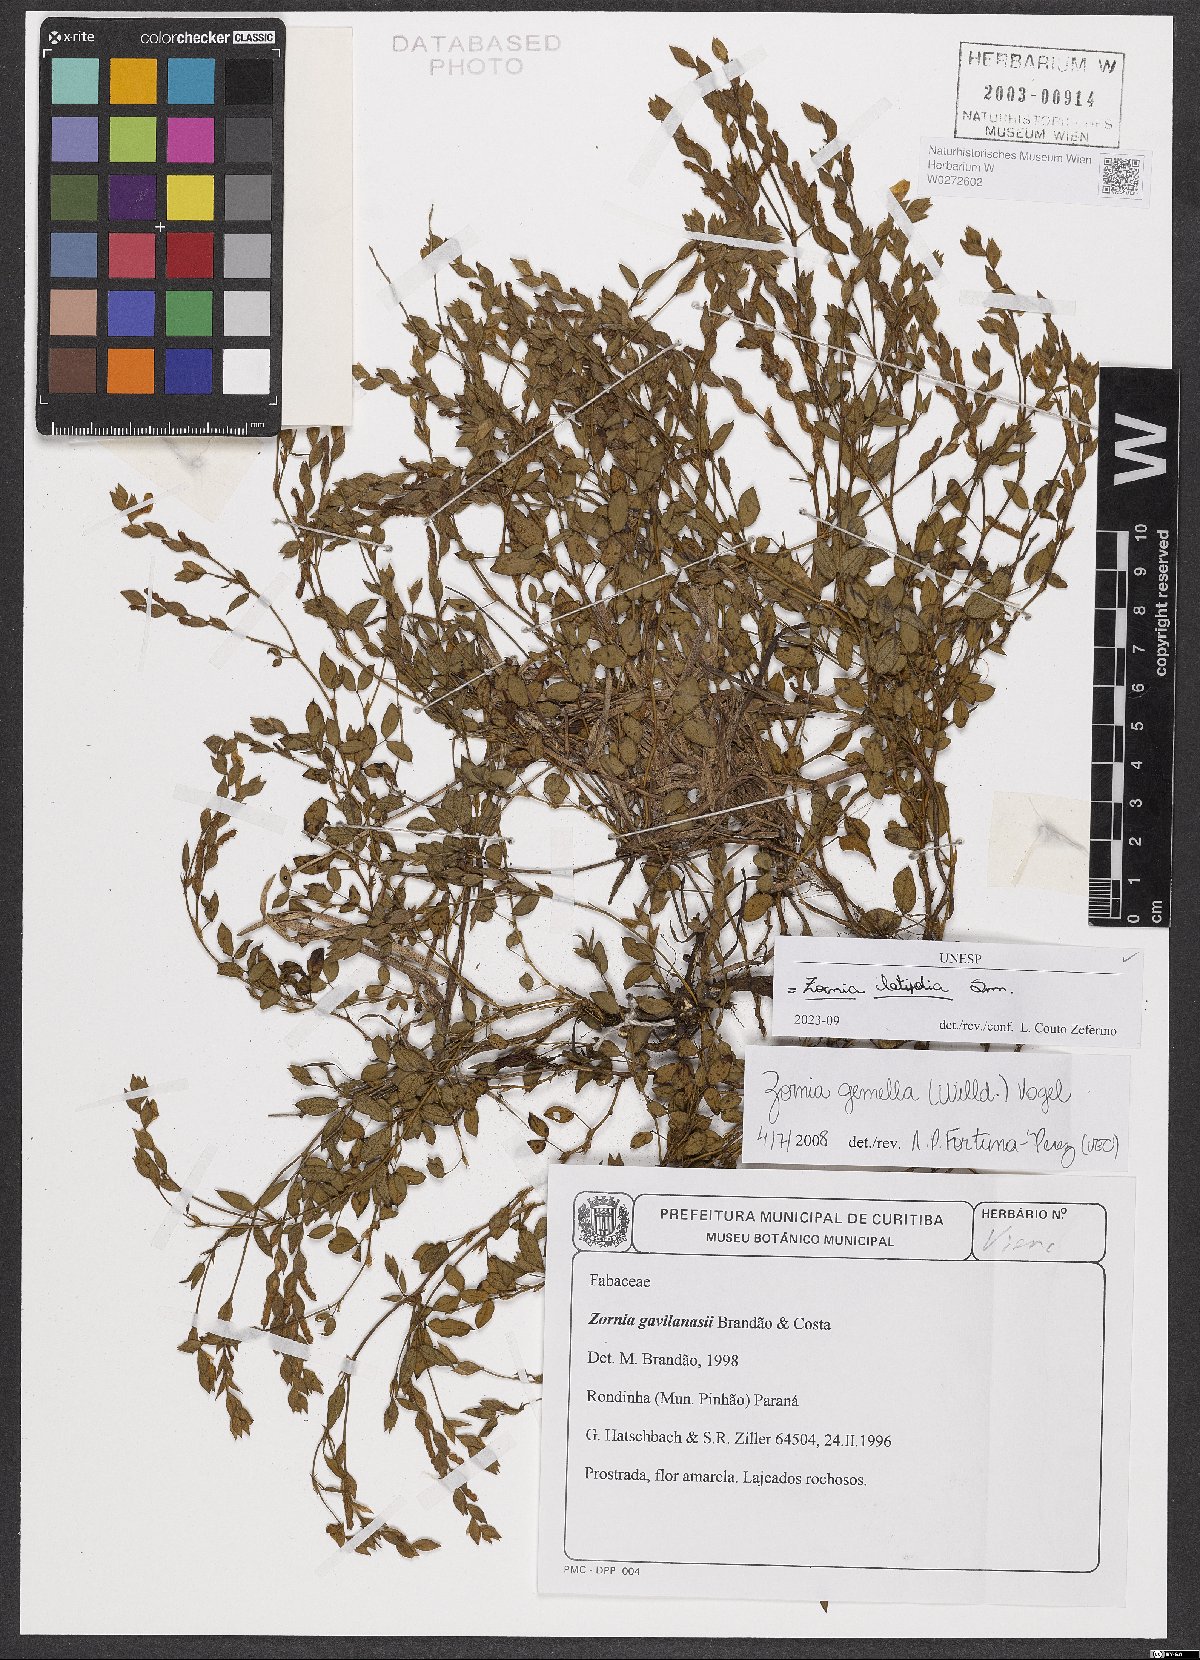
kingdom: Plantae
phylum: Tracheophyta
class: Magnoliopsida
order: Fabales
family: Fabaceae
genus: Zornia
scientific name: Zornia latifolia
